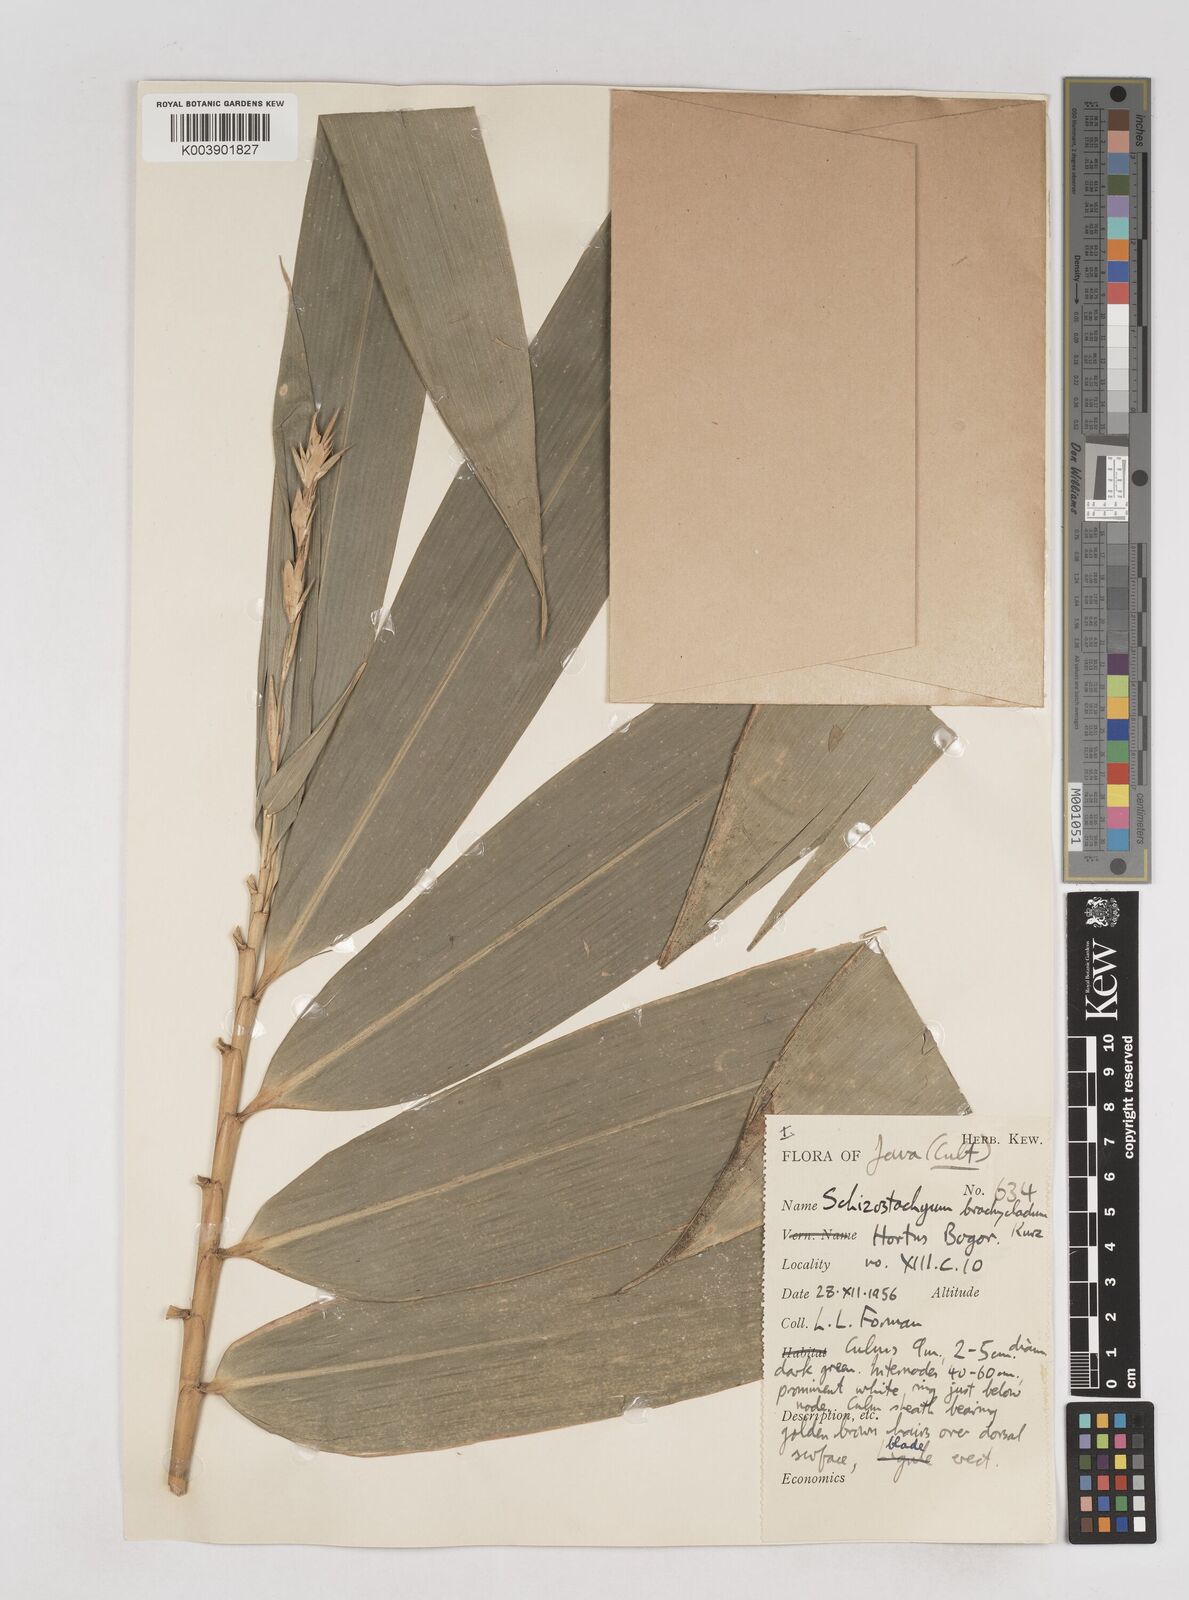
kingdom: Plantae
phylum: Tracheophyta
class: Liliopsida
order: Poales
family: Poaceae
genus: Schizostachyum
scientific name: Schizostachyum brachycladum
